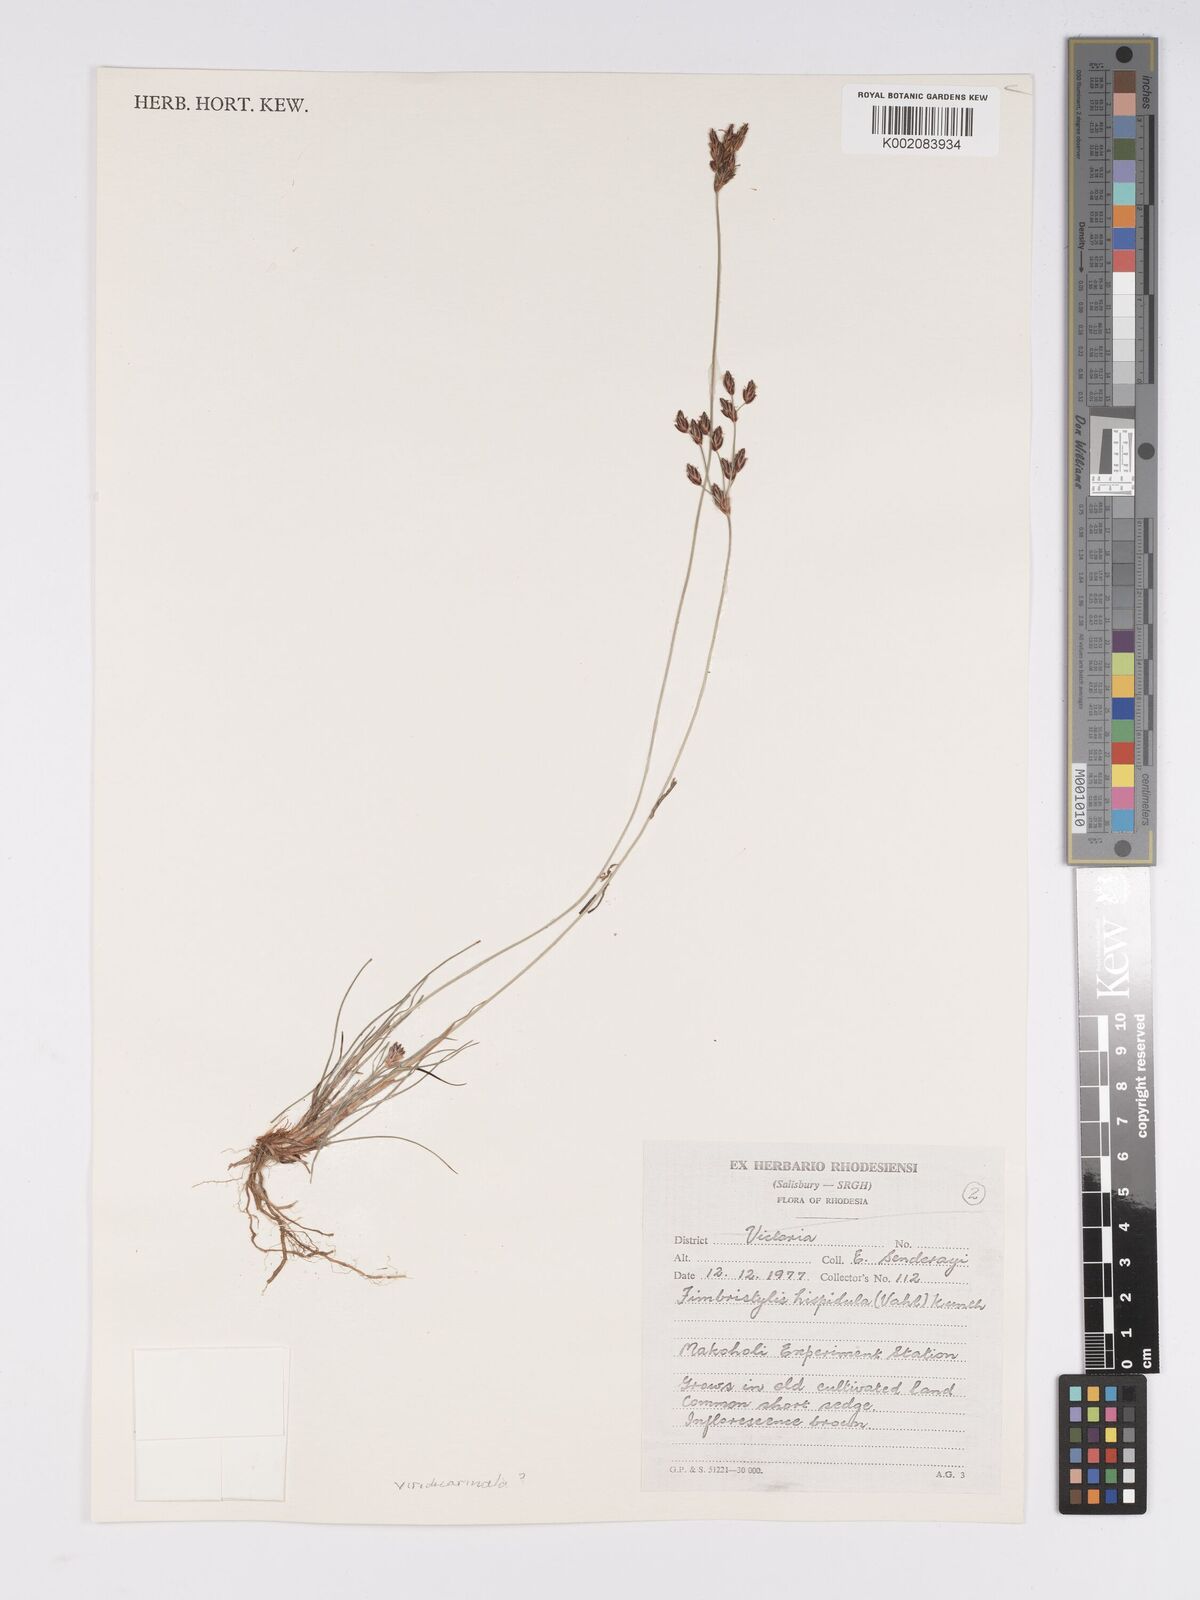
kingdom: Plantae
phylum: Tracheophyta
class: Liliopsida
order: Poales
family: Cyperaceae
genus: Bulbostylis
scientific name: Bulbostylis hispidula
